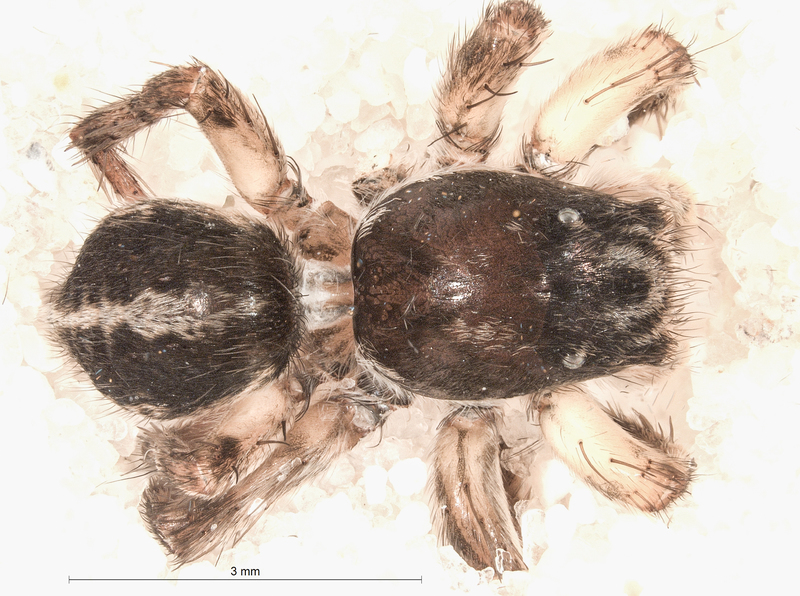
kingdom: Animalia
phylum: Arthropoda
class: Arachnida
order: Araneae
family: Salticidae
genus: Aelurillus
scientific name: Aelurillus v-insignitus
